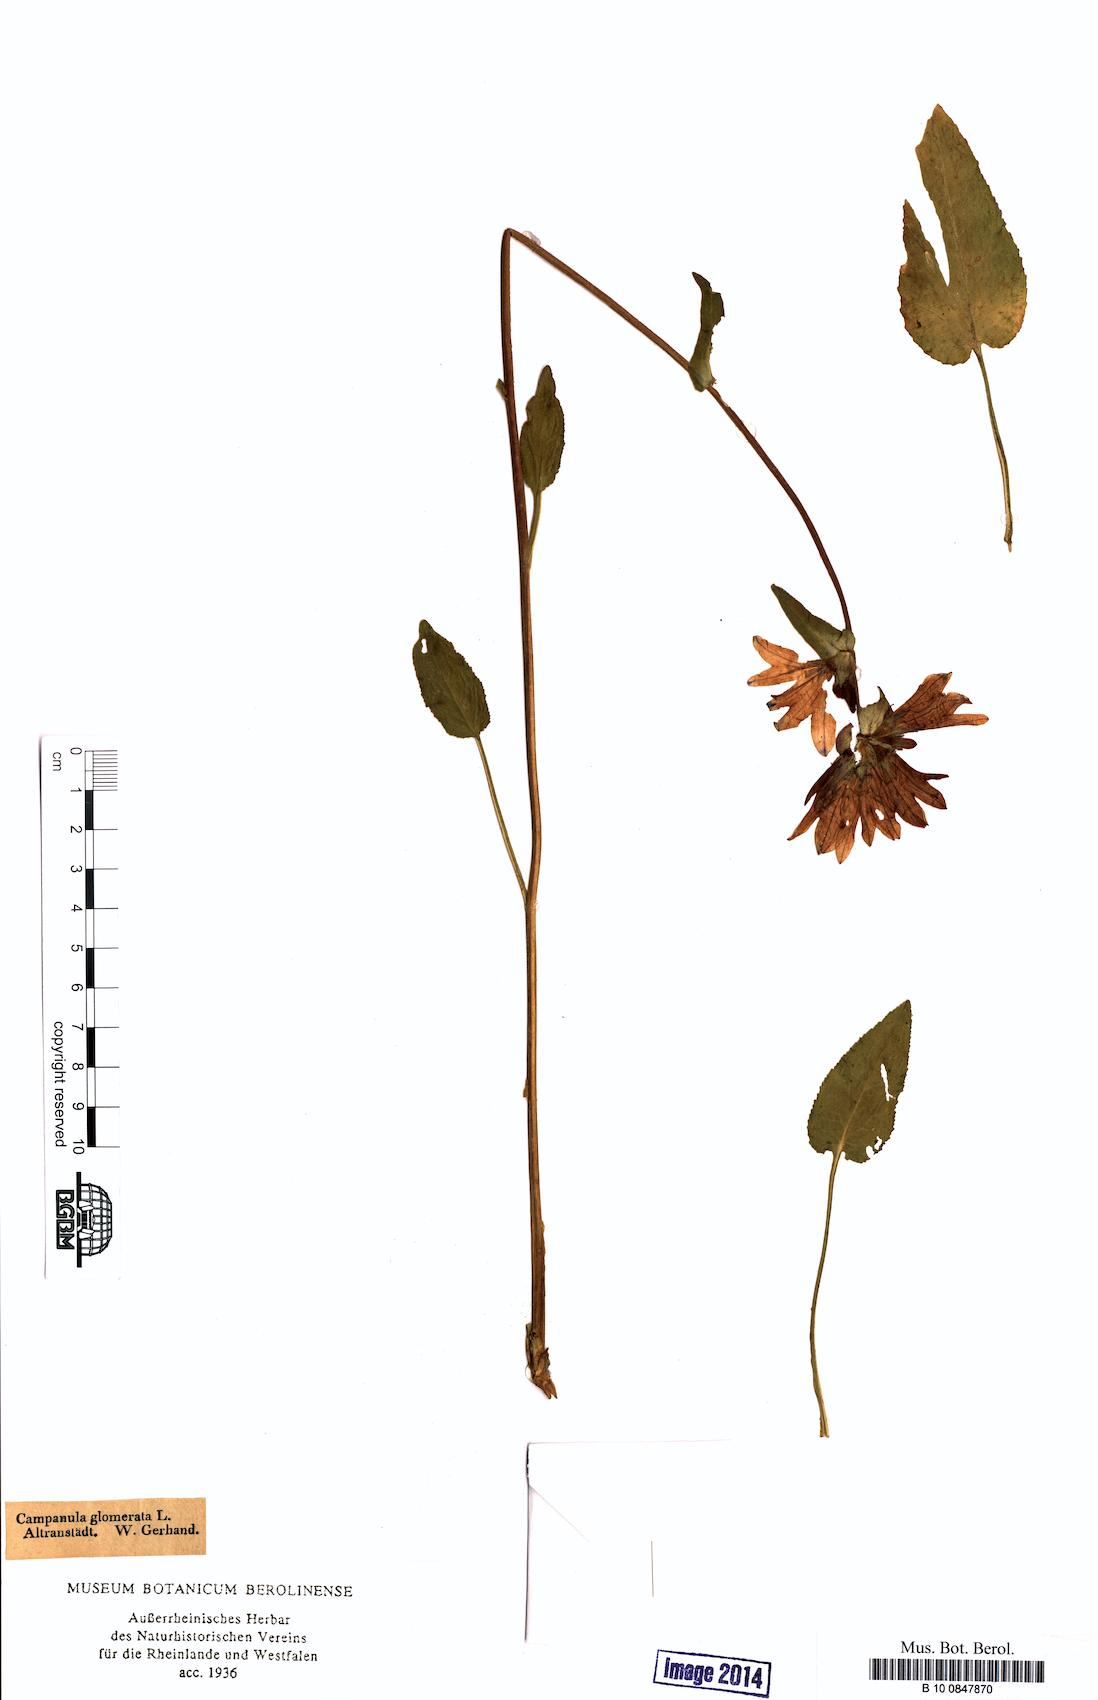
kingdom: Plantae
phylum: Tracheophyta
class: Magnoliopsida
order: Asterales
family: Campanulaceae
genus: Campanula
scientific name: Campanula glomerata
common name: Clustered bellflower
